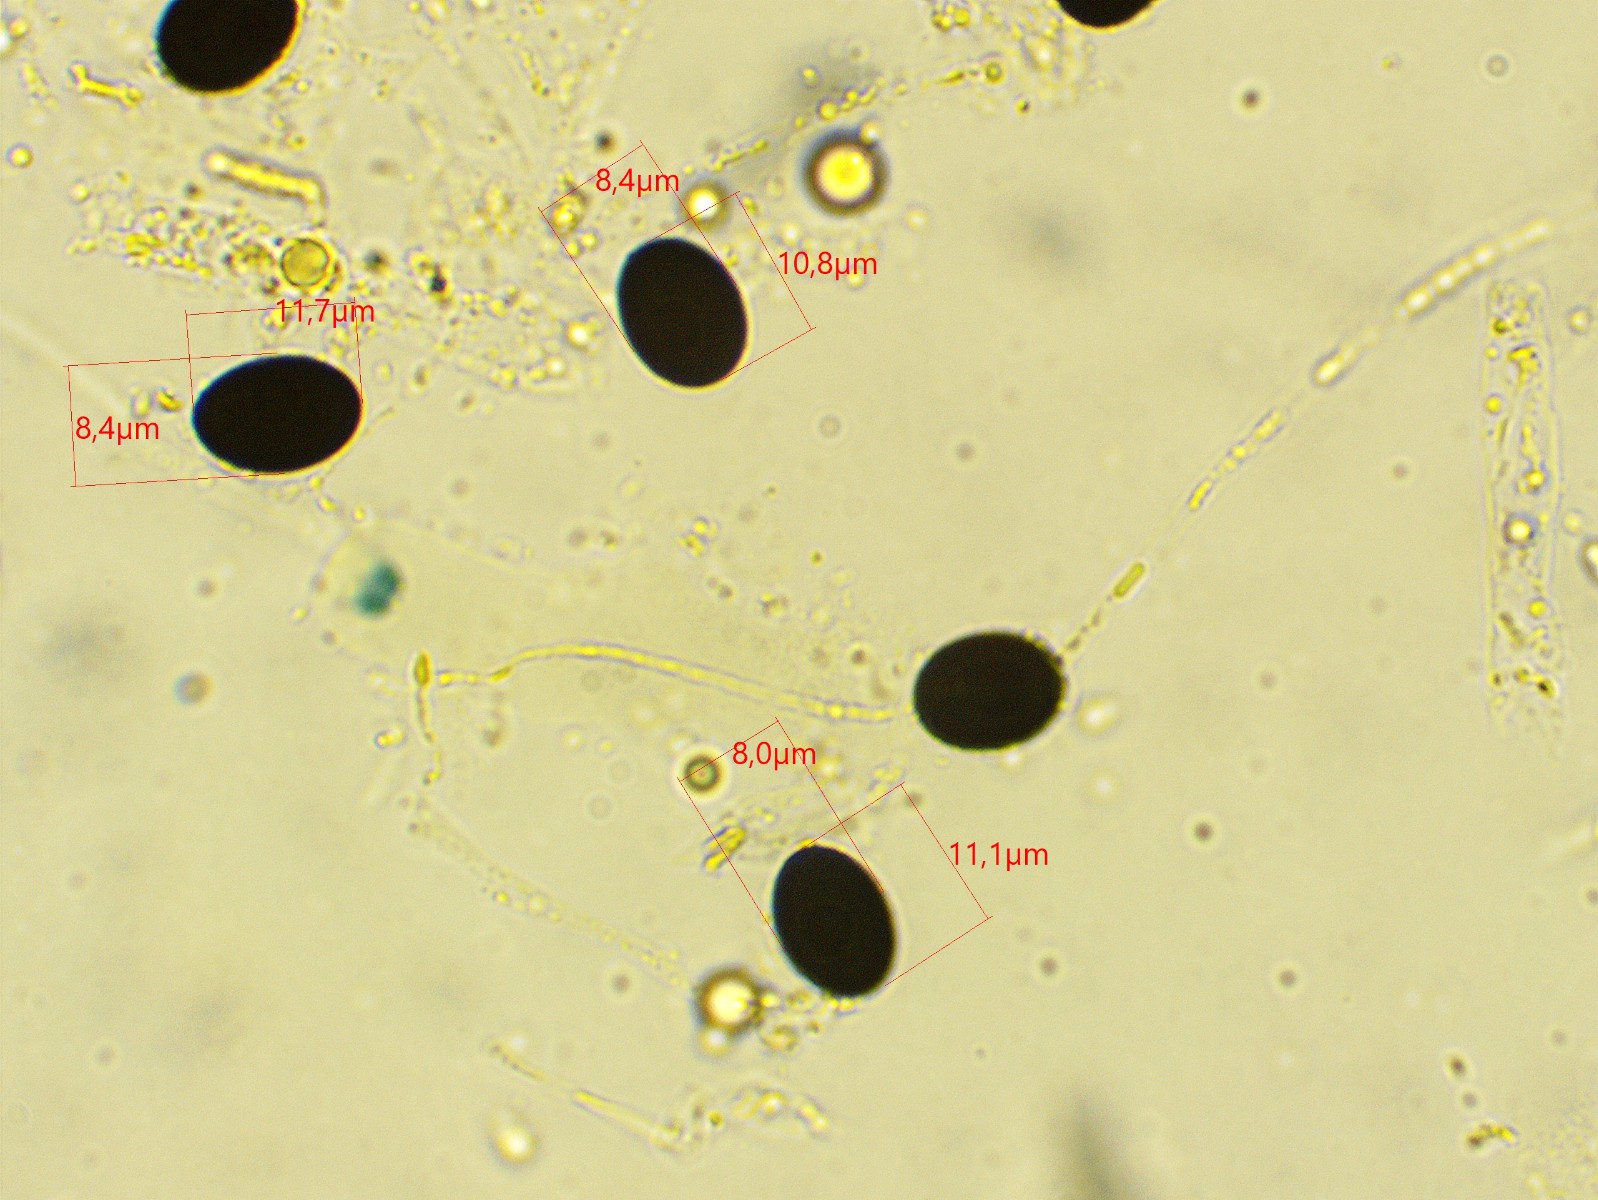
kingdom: Fungi
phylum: Ascomycota
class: Sordariomycetes
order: Xylariales
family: Graphostromataceae
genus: Biscogniauxia
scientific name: Biscogniauxia nummularia
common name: bøge-kulskive
